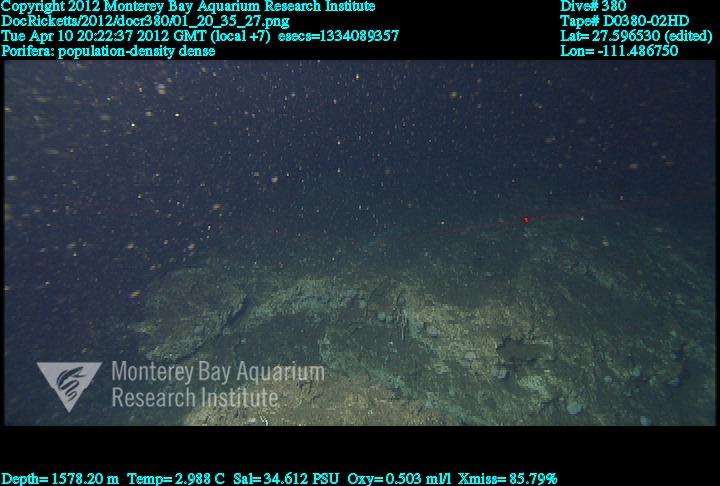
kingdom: Animalia
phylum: Porifera
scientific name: Porifera
